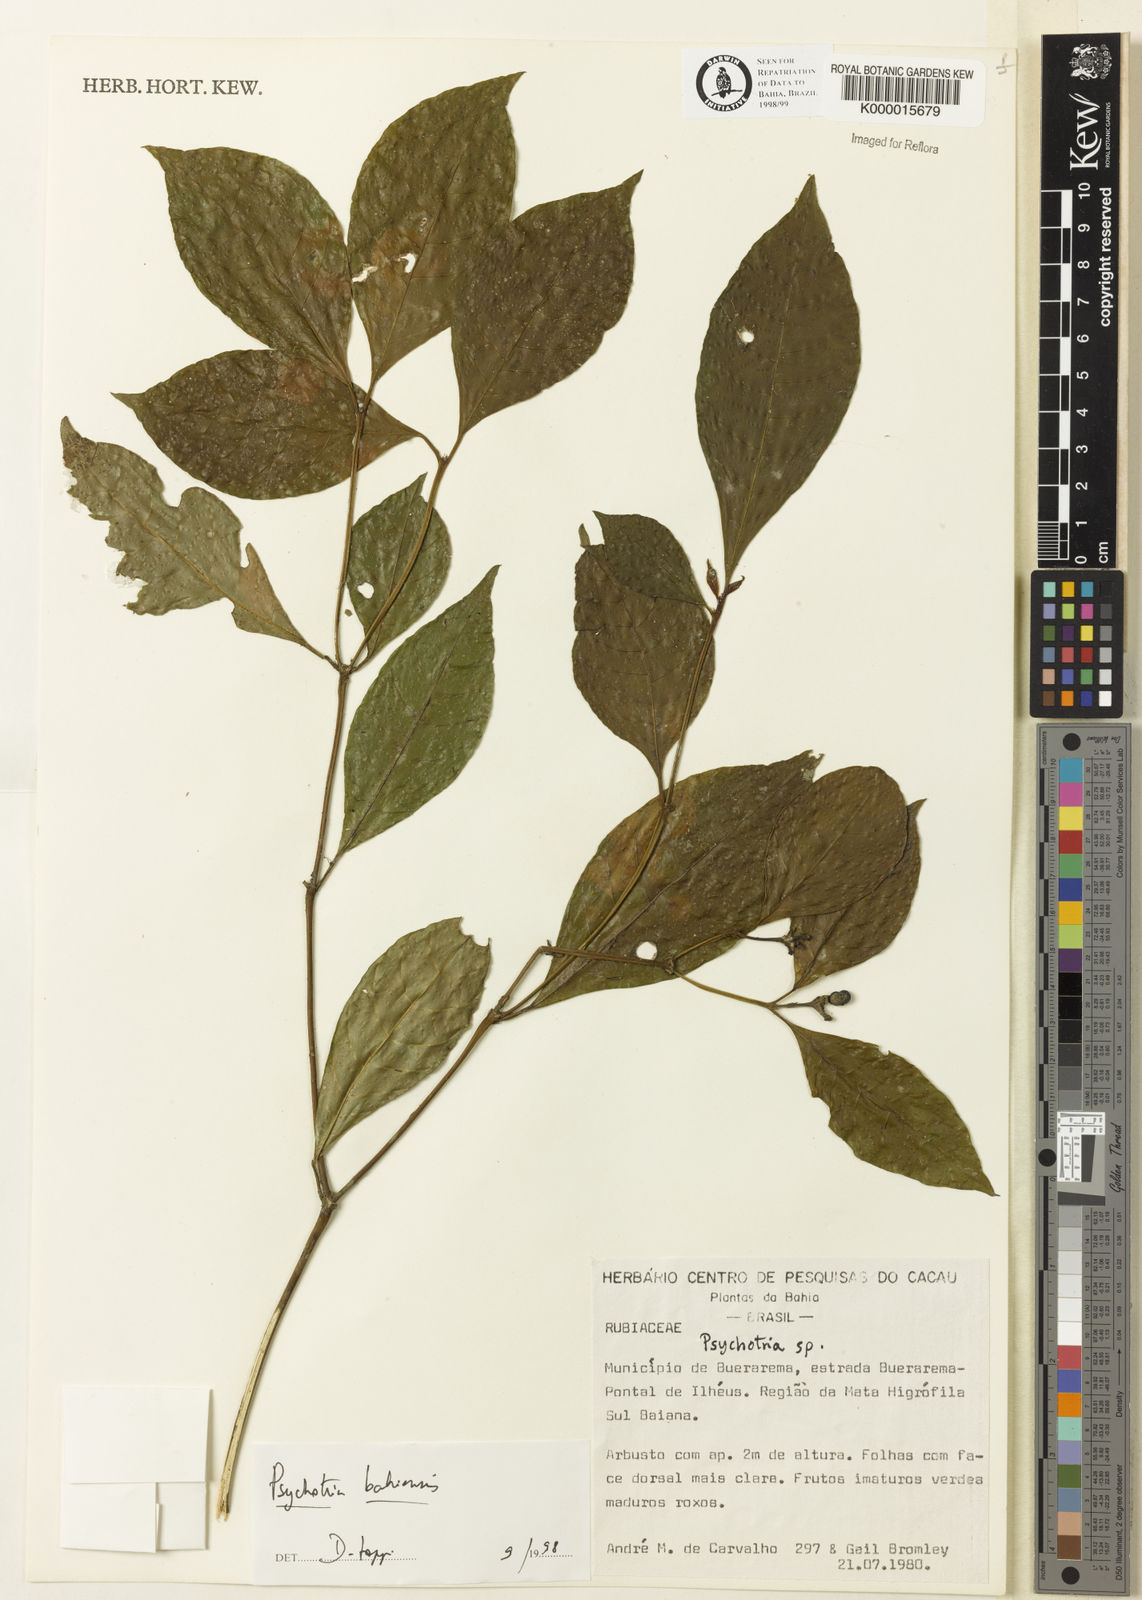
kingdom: Plantae
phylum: Tracheophyta
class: Magnoliopsida
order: Gentianales
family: Rubiaceae
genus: Psychotria
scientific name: Psychotria bahiensis
